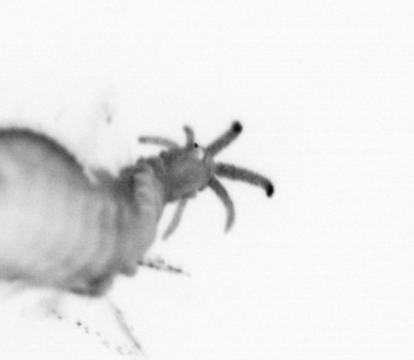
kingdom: Animalia
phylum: Annelida
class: Polychaeta
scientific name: Polychaeta
